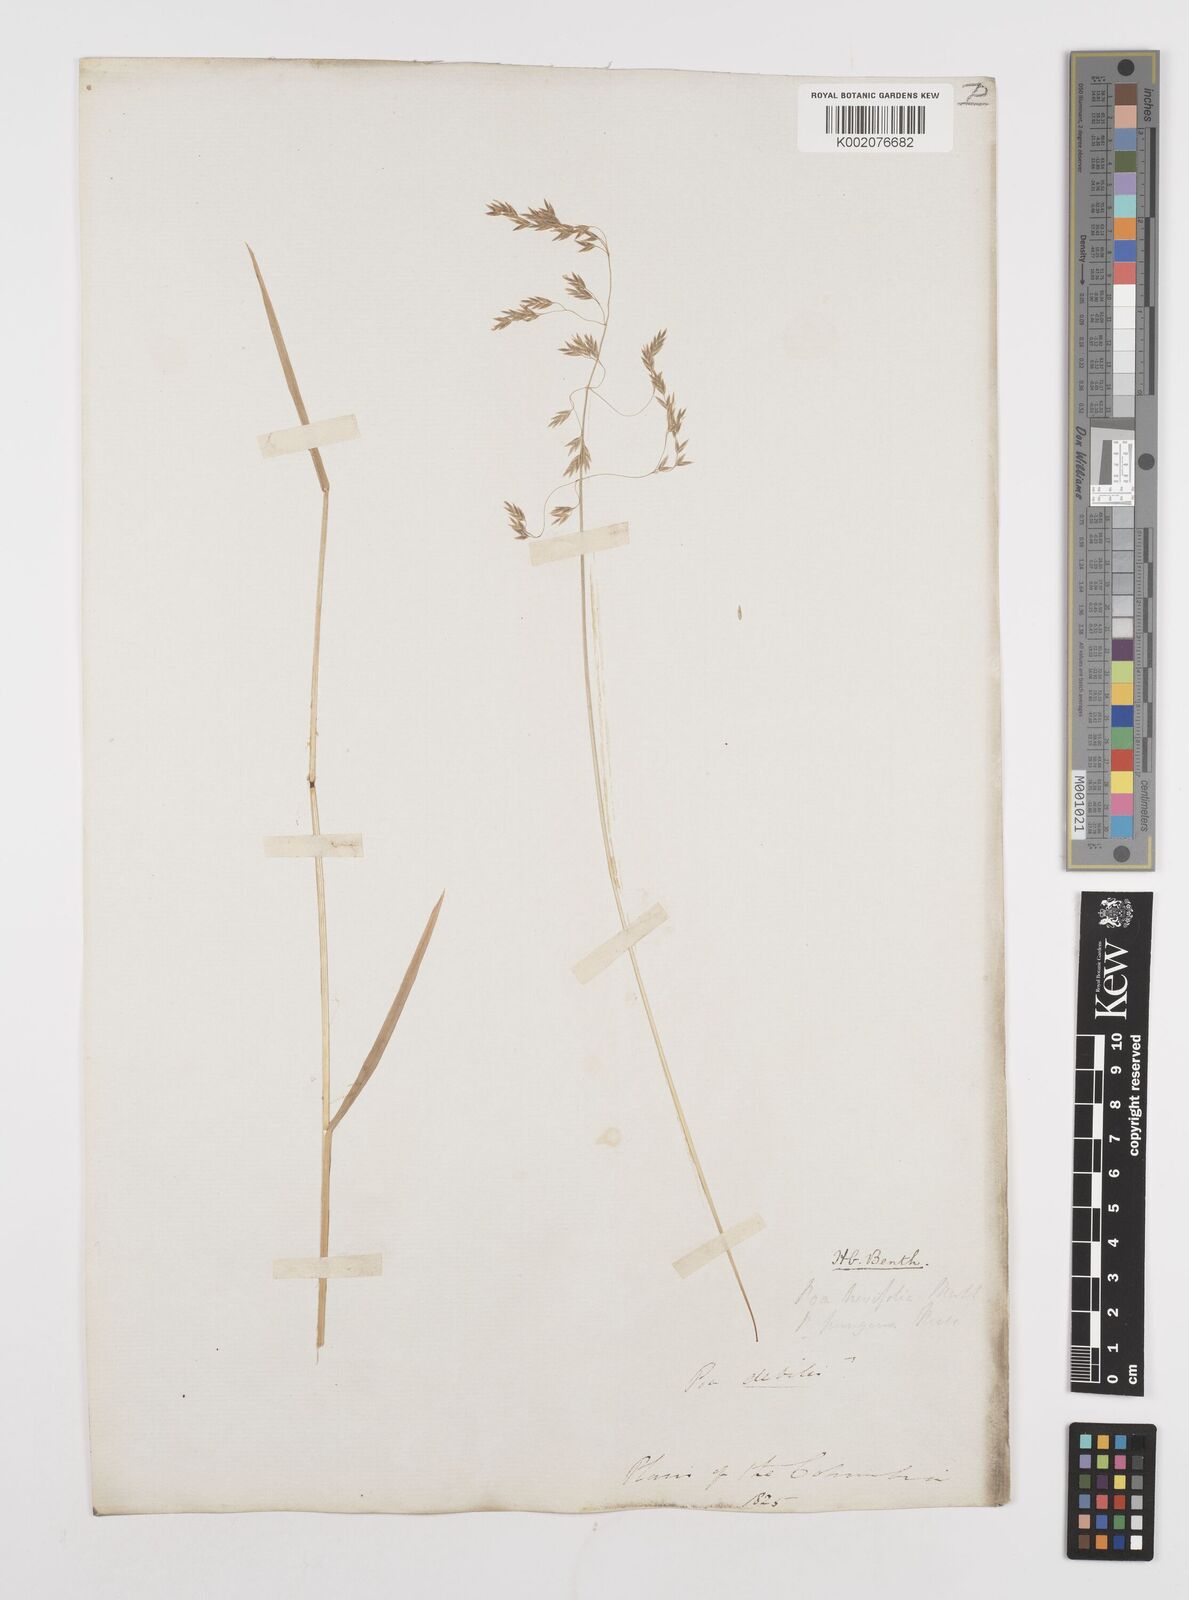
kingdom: Plantae
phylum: Tracheophyta
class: Liliopsida
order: Poales
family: Poaceae
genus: Poa
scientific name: Poa cuspidata
